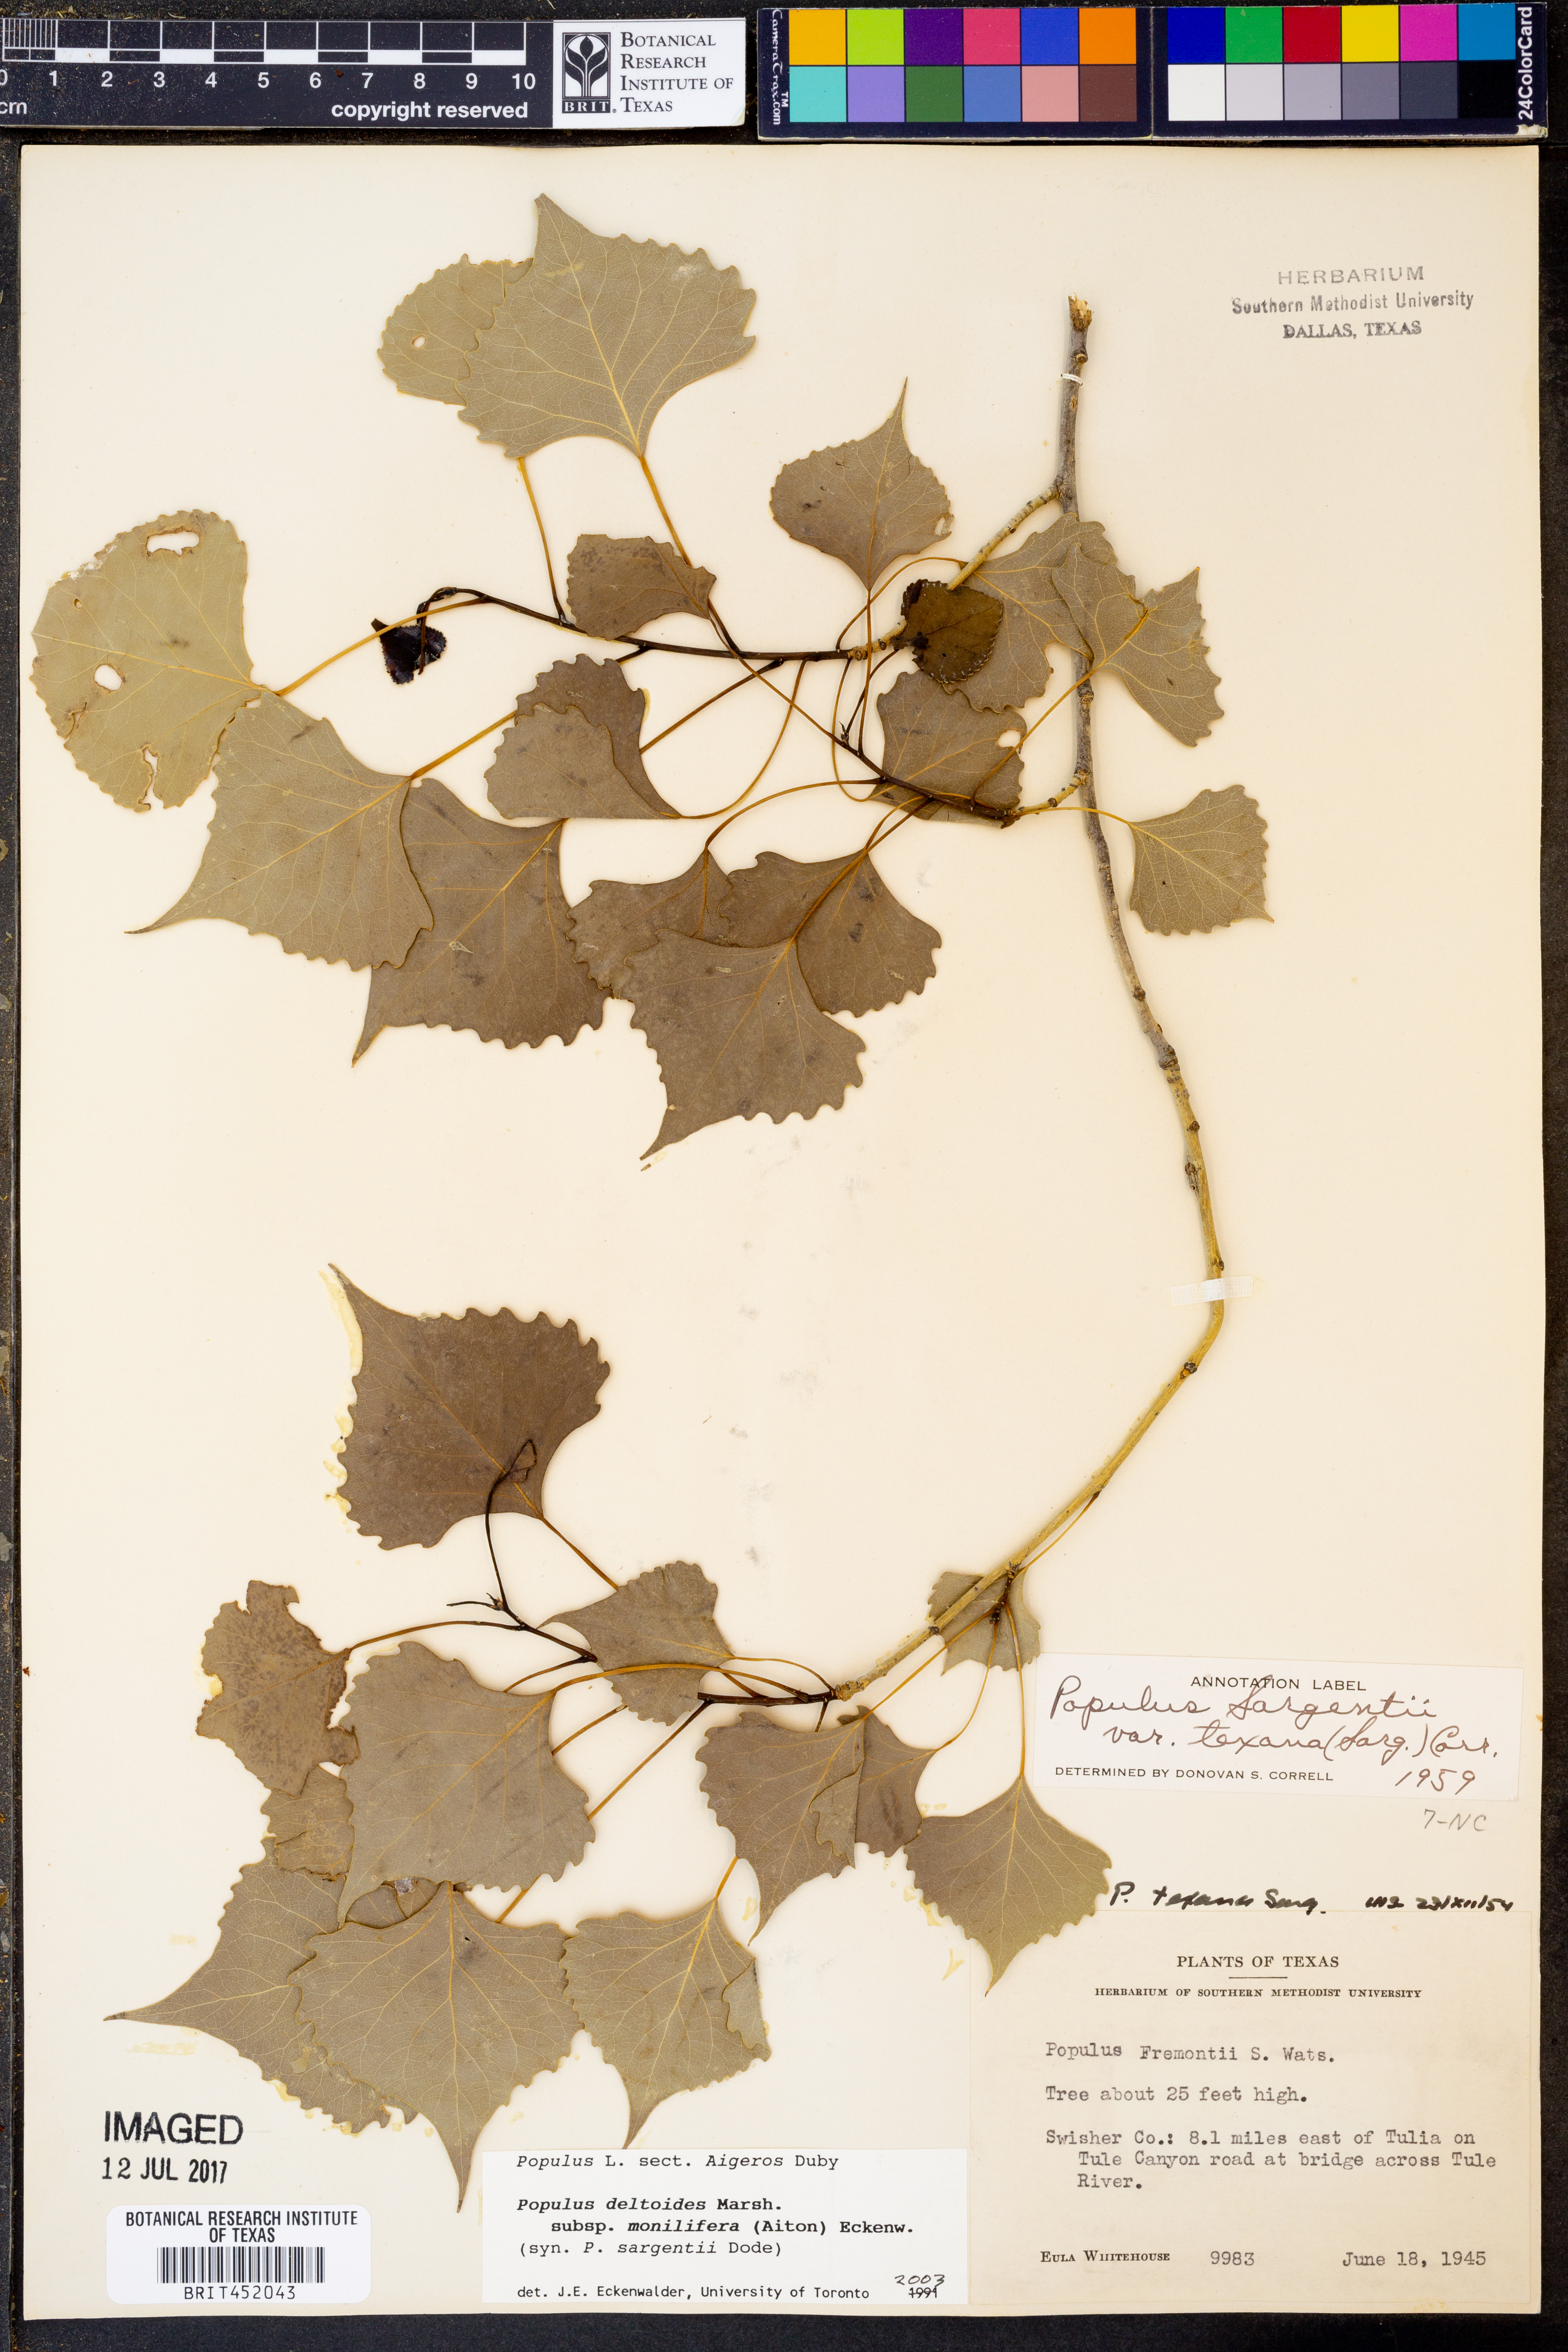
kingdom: Plantae
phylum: Tracheophyta
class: Magnoliopsida
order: Malpighiales
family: Salicaceae
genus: Populus
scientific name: Populus deltoides
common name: Eastern cottonwood
